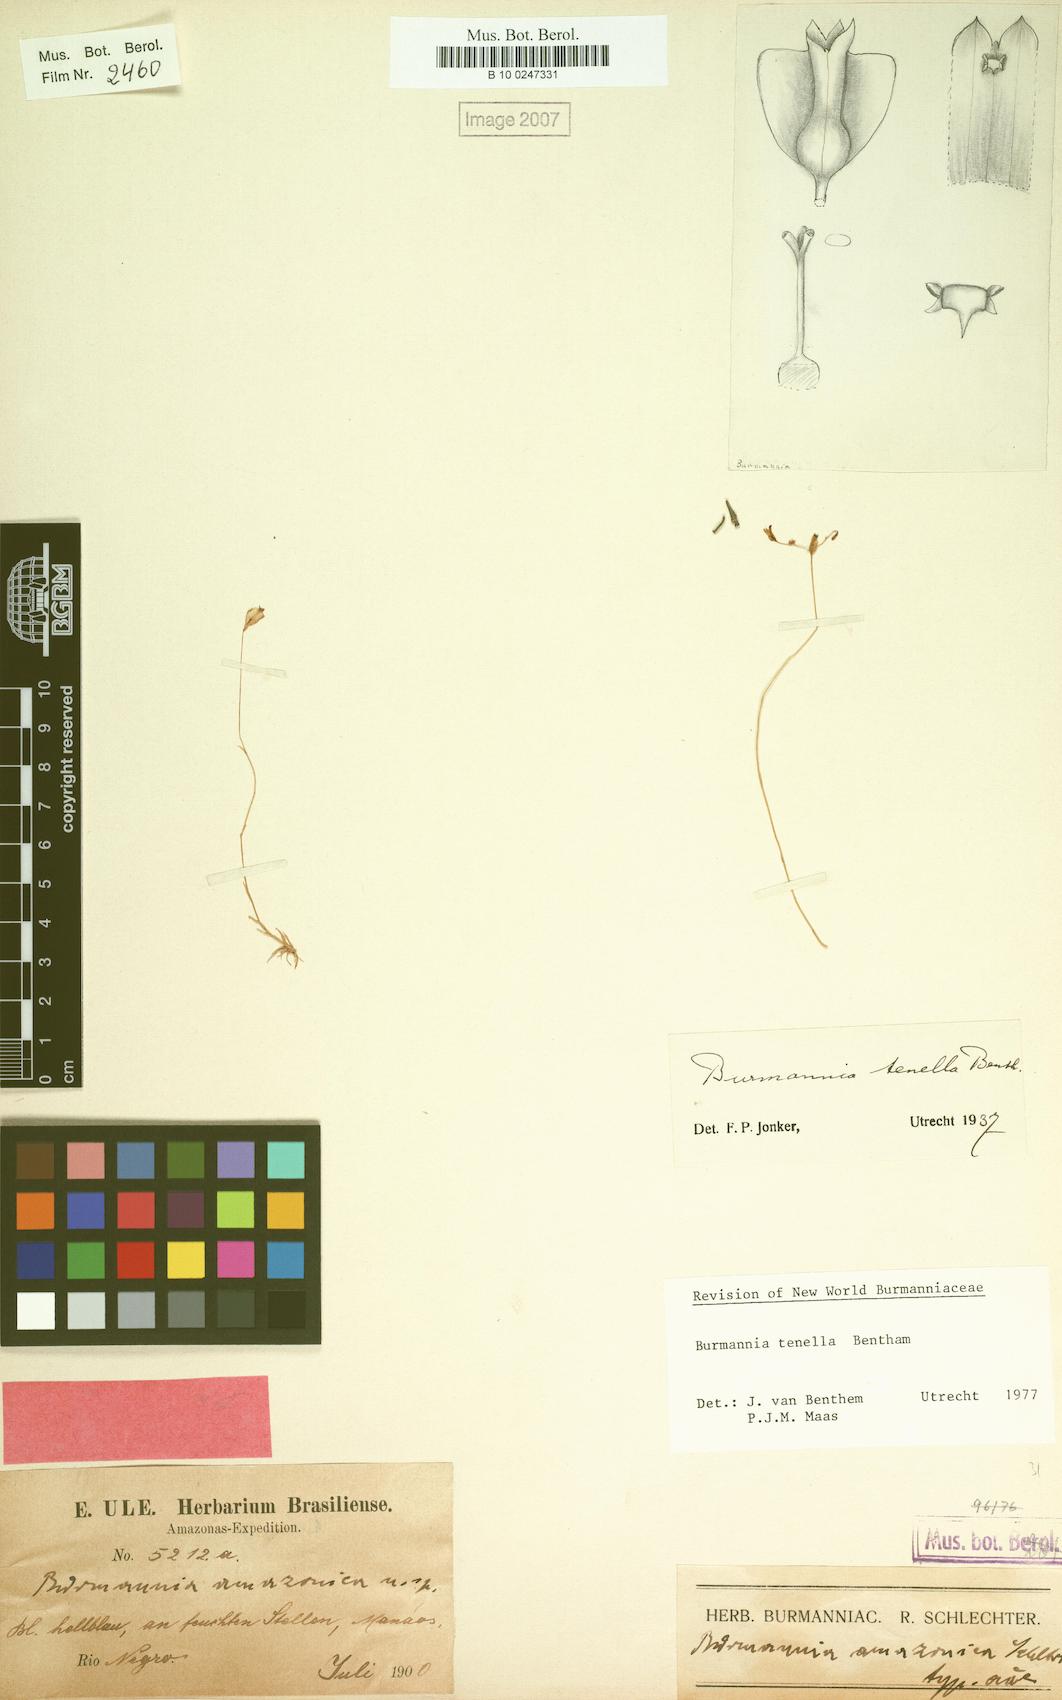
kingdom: Plantae
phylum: Tracheophyta
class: Liliopsida
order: Dioscoreales
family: Burmanniaceae
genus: Burmannia
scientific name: Burmannia tenella
